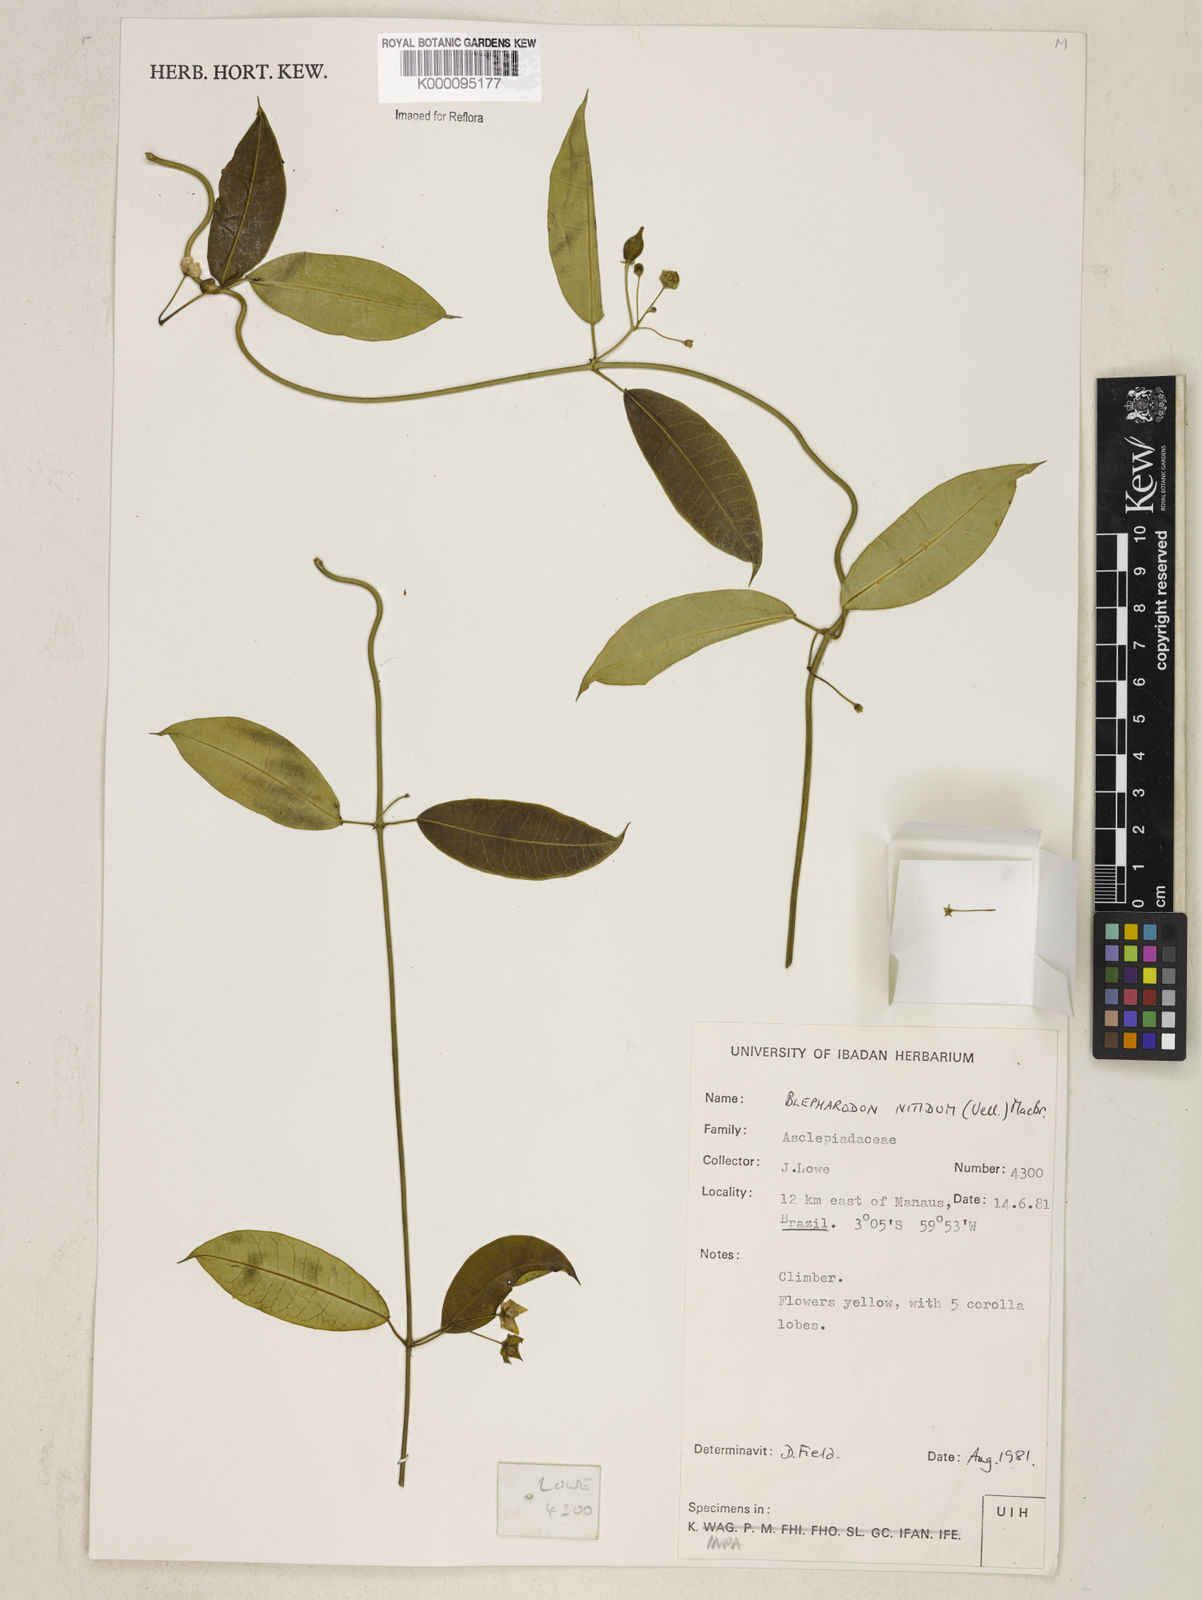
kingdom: Plantae
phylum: Tracheophyta
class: Magnoliopsida
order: Gentianales
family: Apocynaceae
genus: Blepharodon
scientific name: Blepharodon pictum
